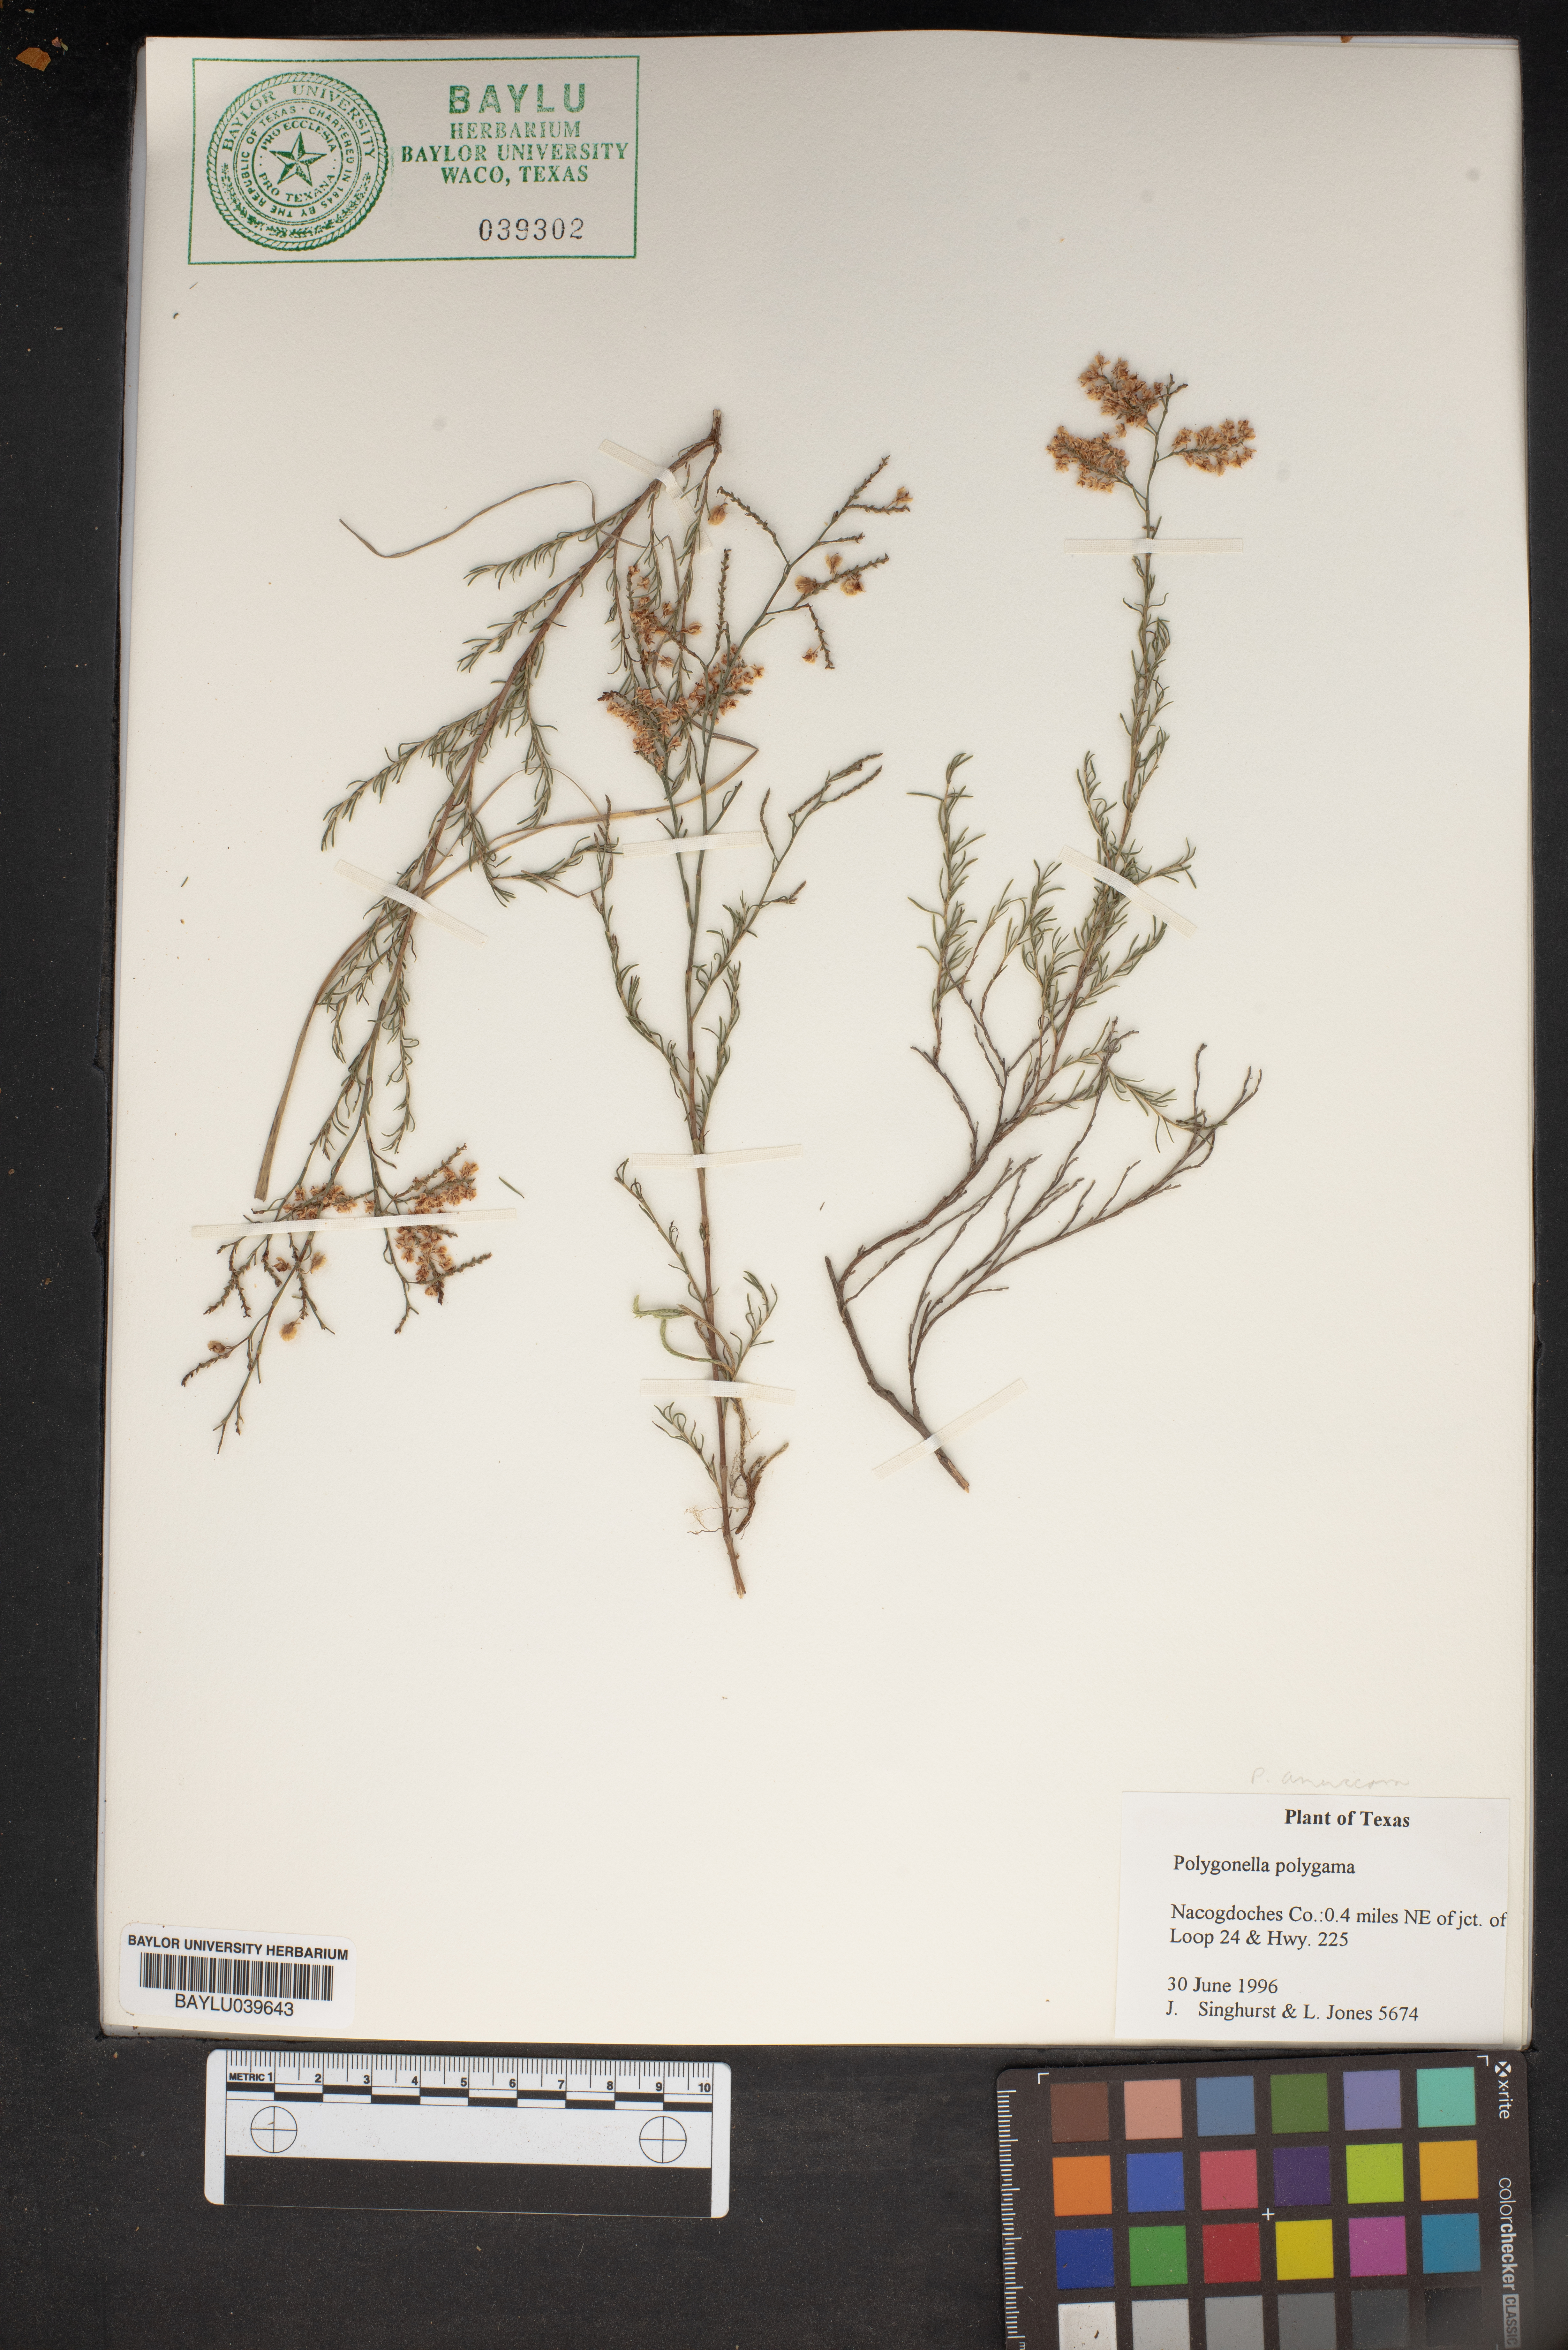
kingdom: Plantae
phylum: Tracheophyta
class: Magnoliopsida
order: Caryophyllales
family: Polygonaceae
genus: Polygonella
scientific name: Polygonella polygama
